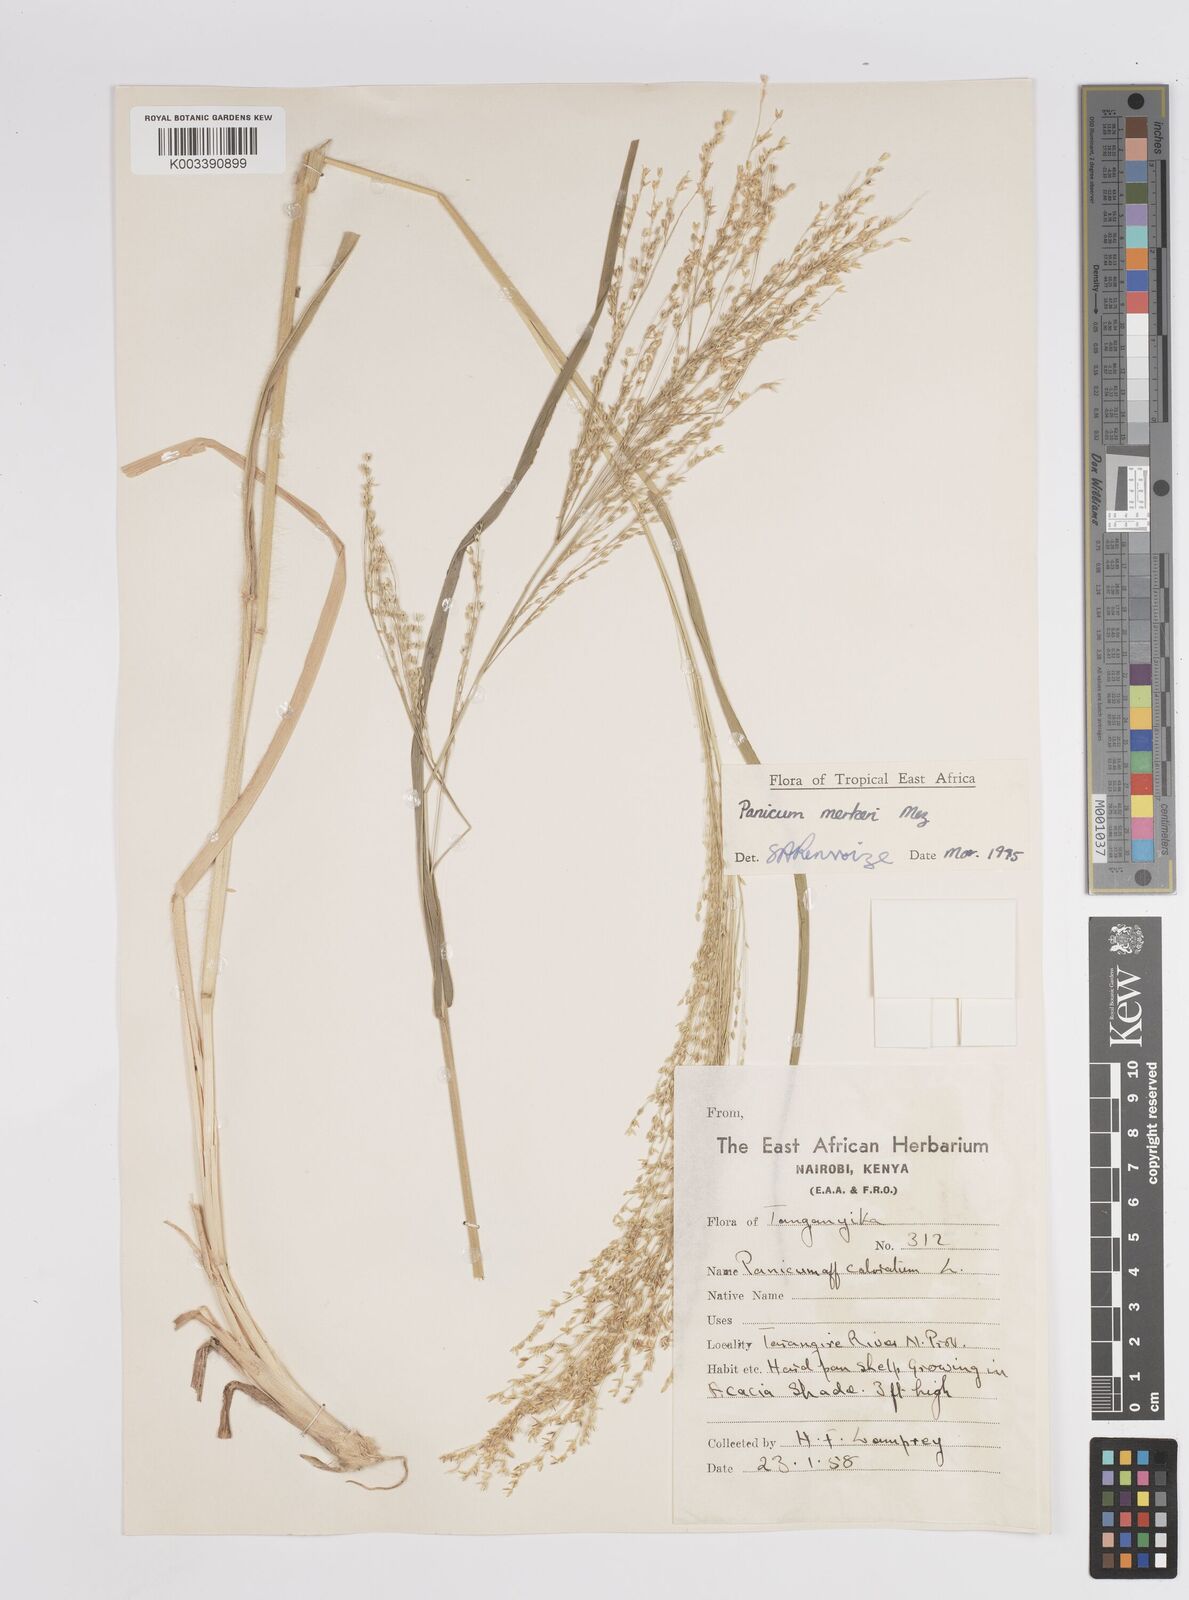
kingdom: Plantae
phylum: Tracheophyta
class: Liliopsida
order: Poales
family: Poaceae
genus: Panicum
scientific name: Panicum merkeri
